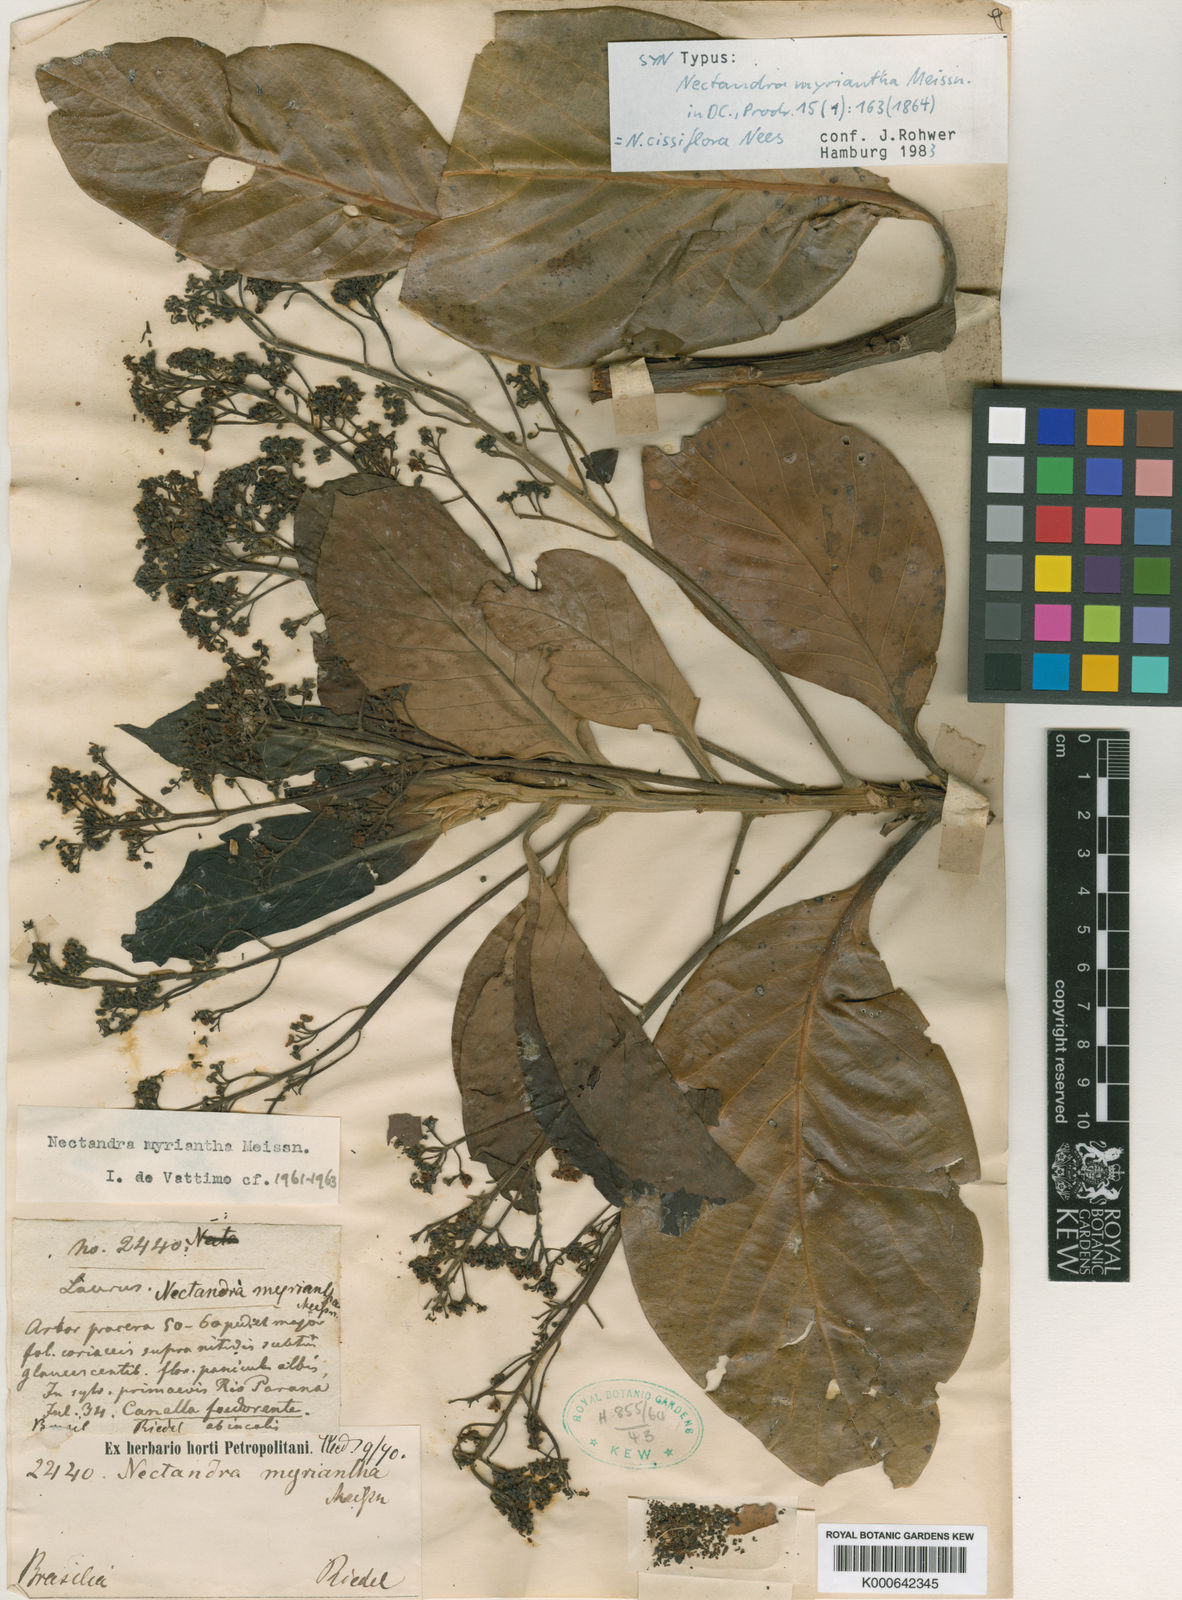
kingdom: Plantae
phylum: Tracheophyta
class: Magnoliopsida
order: Laurales
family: Lauraceae
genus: Nectandra
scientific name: Nectandra cissiflora
